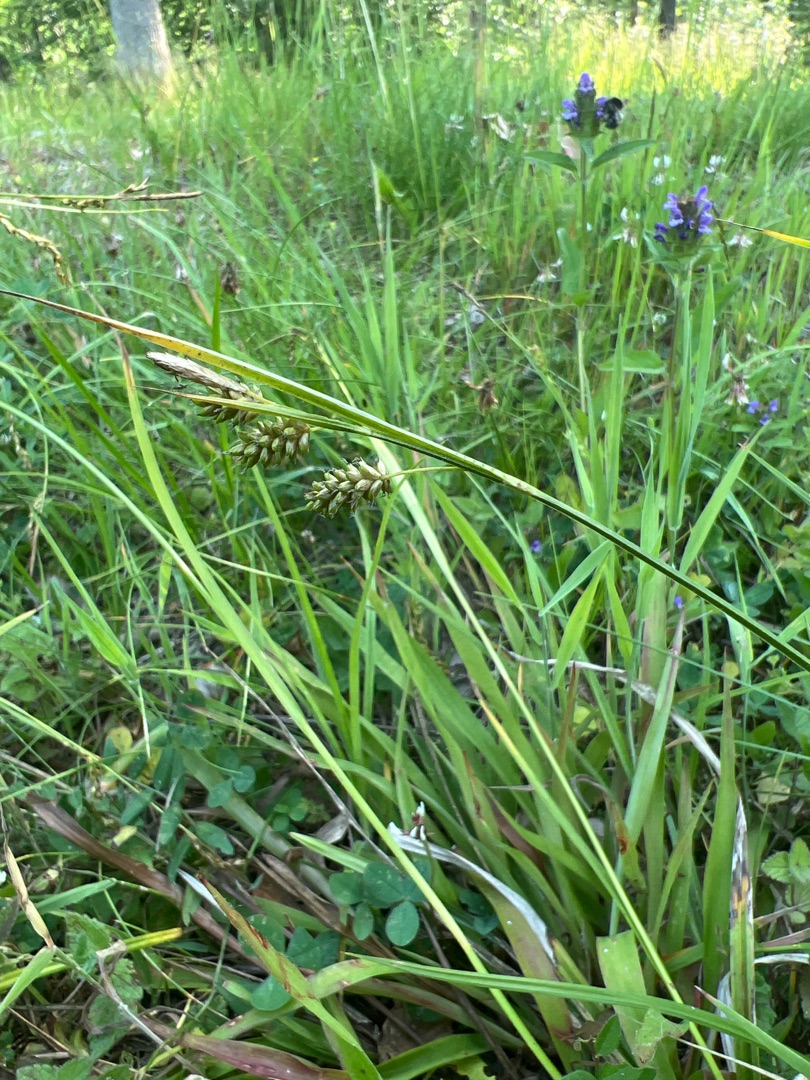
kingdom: Plantae
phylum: Tracheophyta
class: Liliopsida
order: Poales
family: Cyperaceae
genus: Carex
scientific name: Carex pallescens
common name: Bleg star
